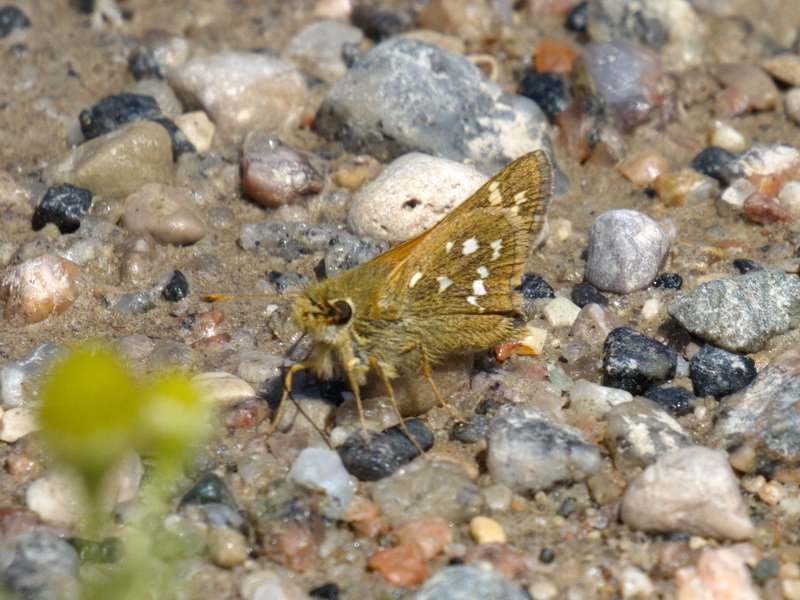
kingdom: Animalia
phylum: Arthropoda
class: Insecta
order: Lepidoptera
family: Hesperiidae
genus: Hesperia
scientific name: Hesperia comma
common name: Common Branded Skipper
